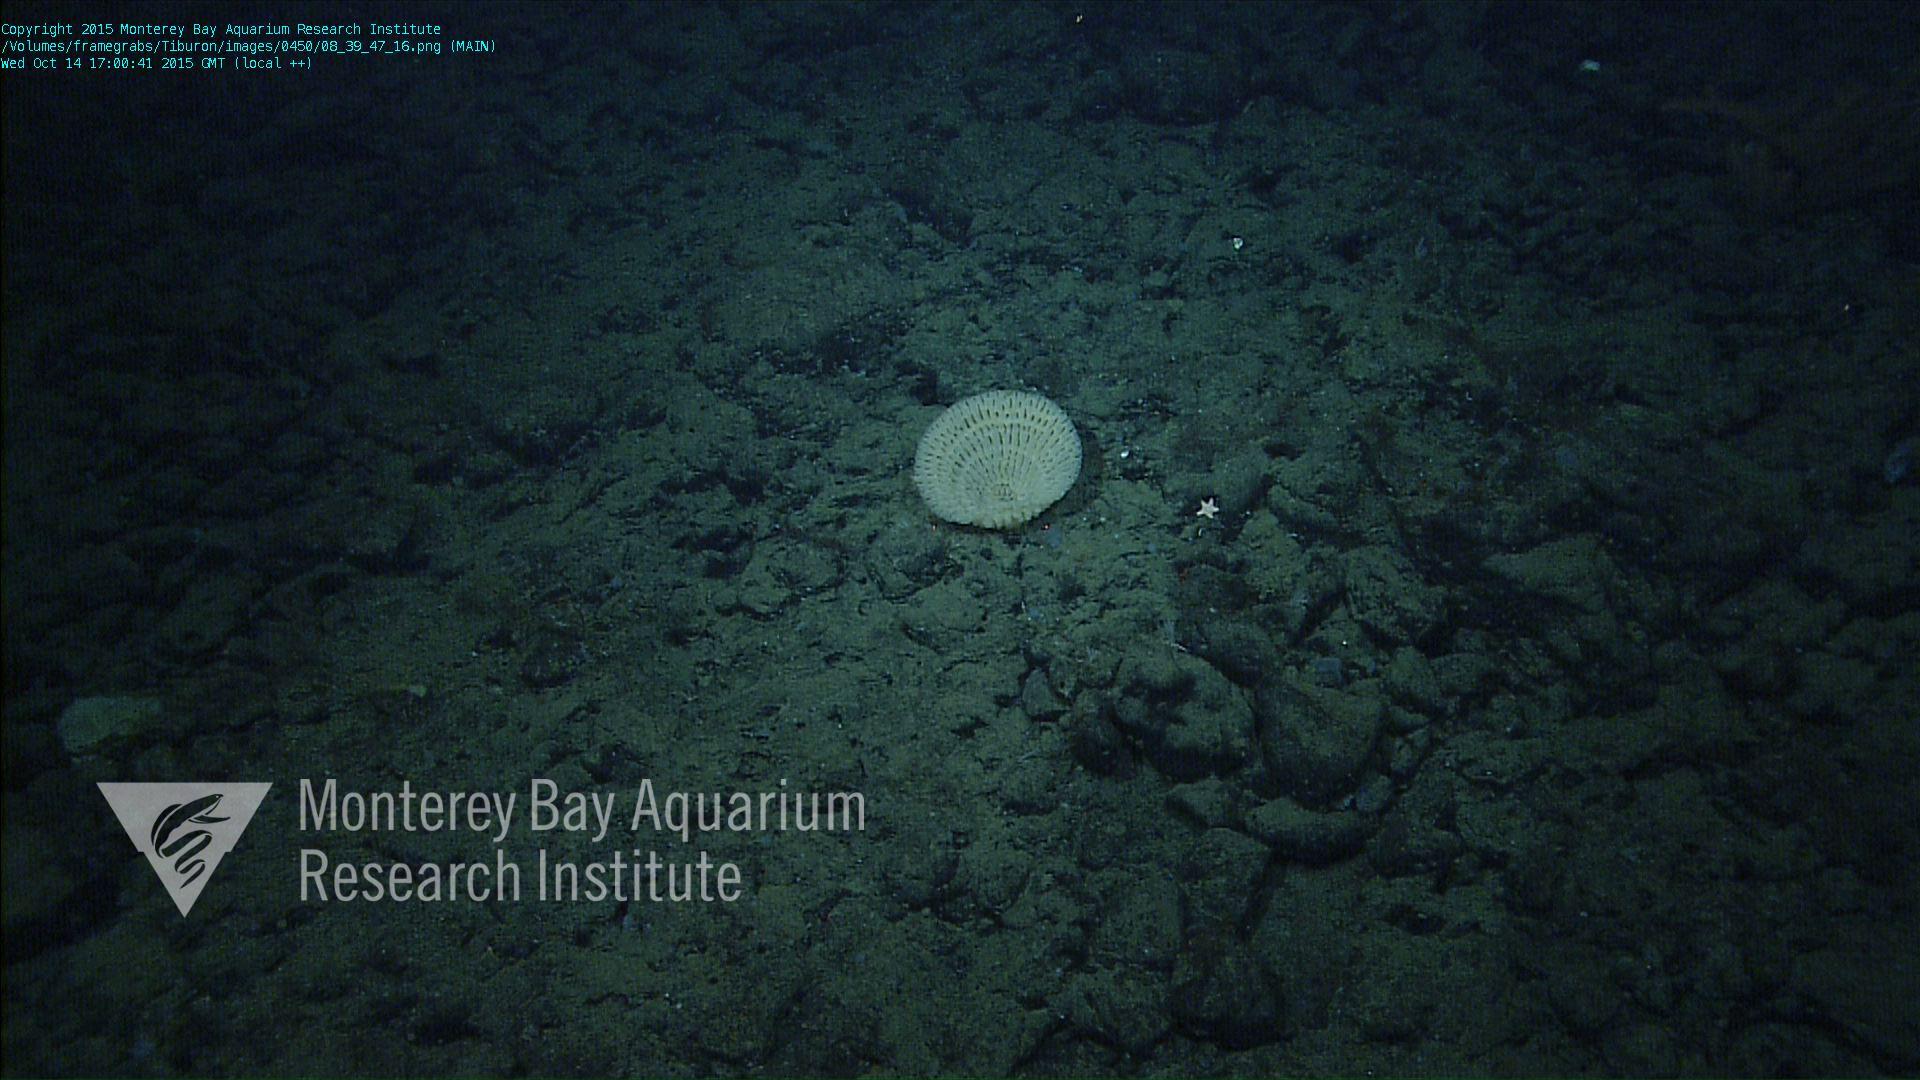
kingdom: Animalia
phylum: Porifera
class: Hexactinellida
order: Sceptrulophora
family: Aphrocallistidae
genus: Heterochone
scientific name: Heterochone
